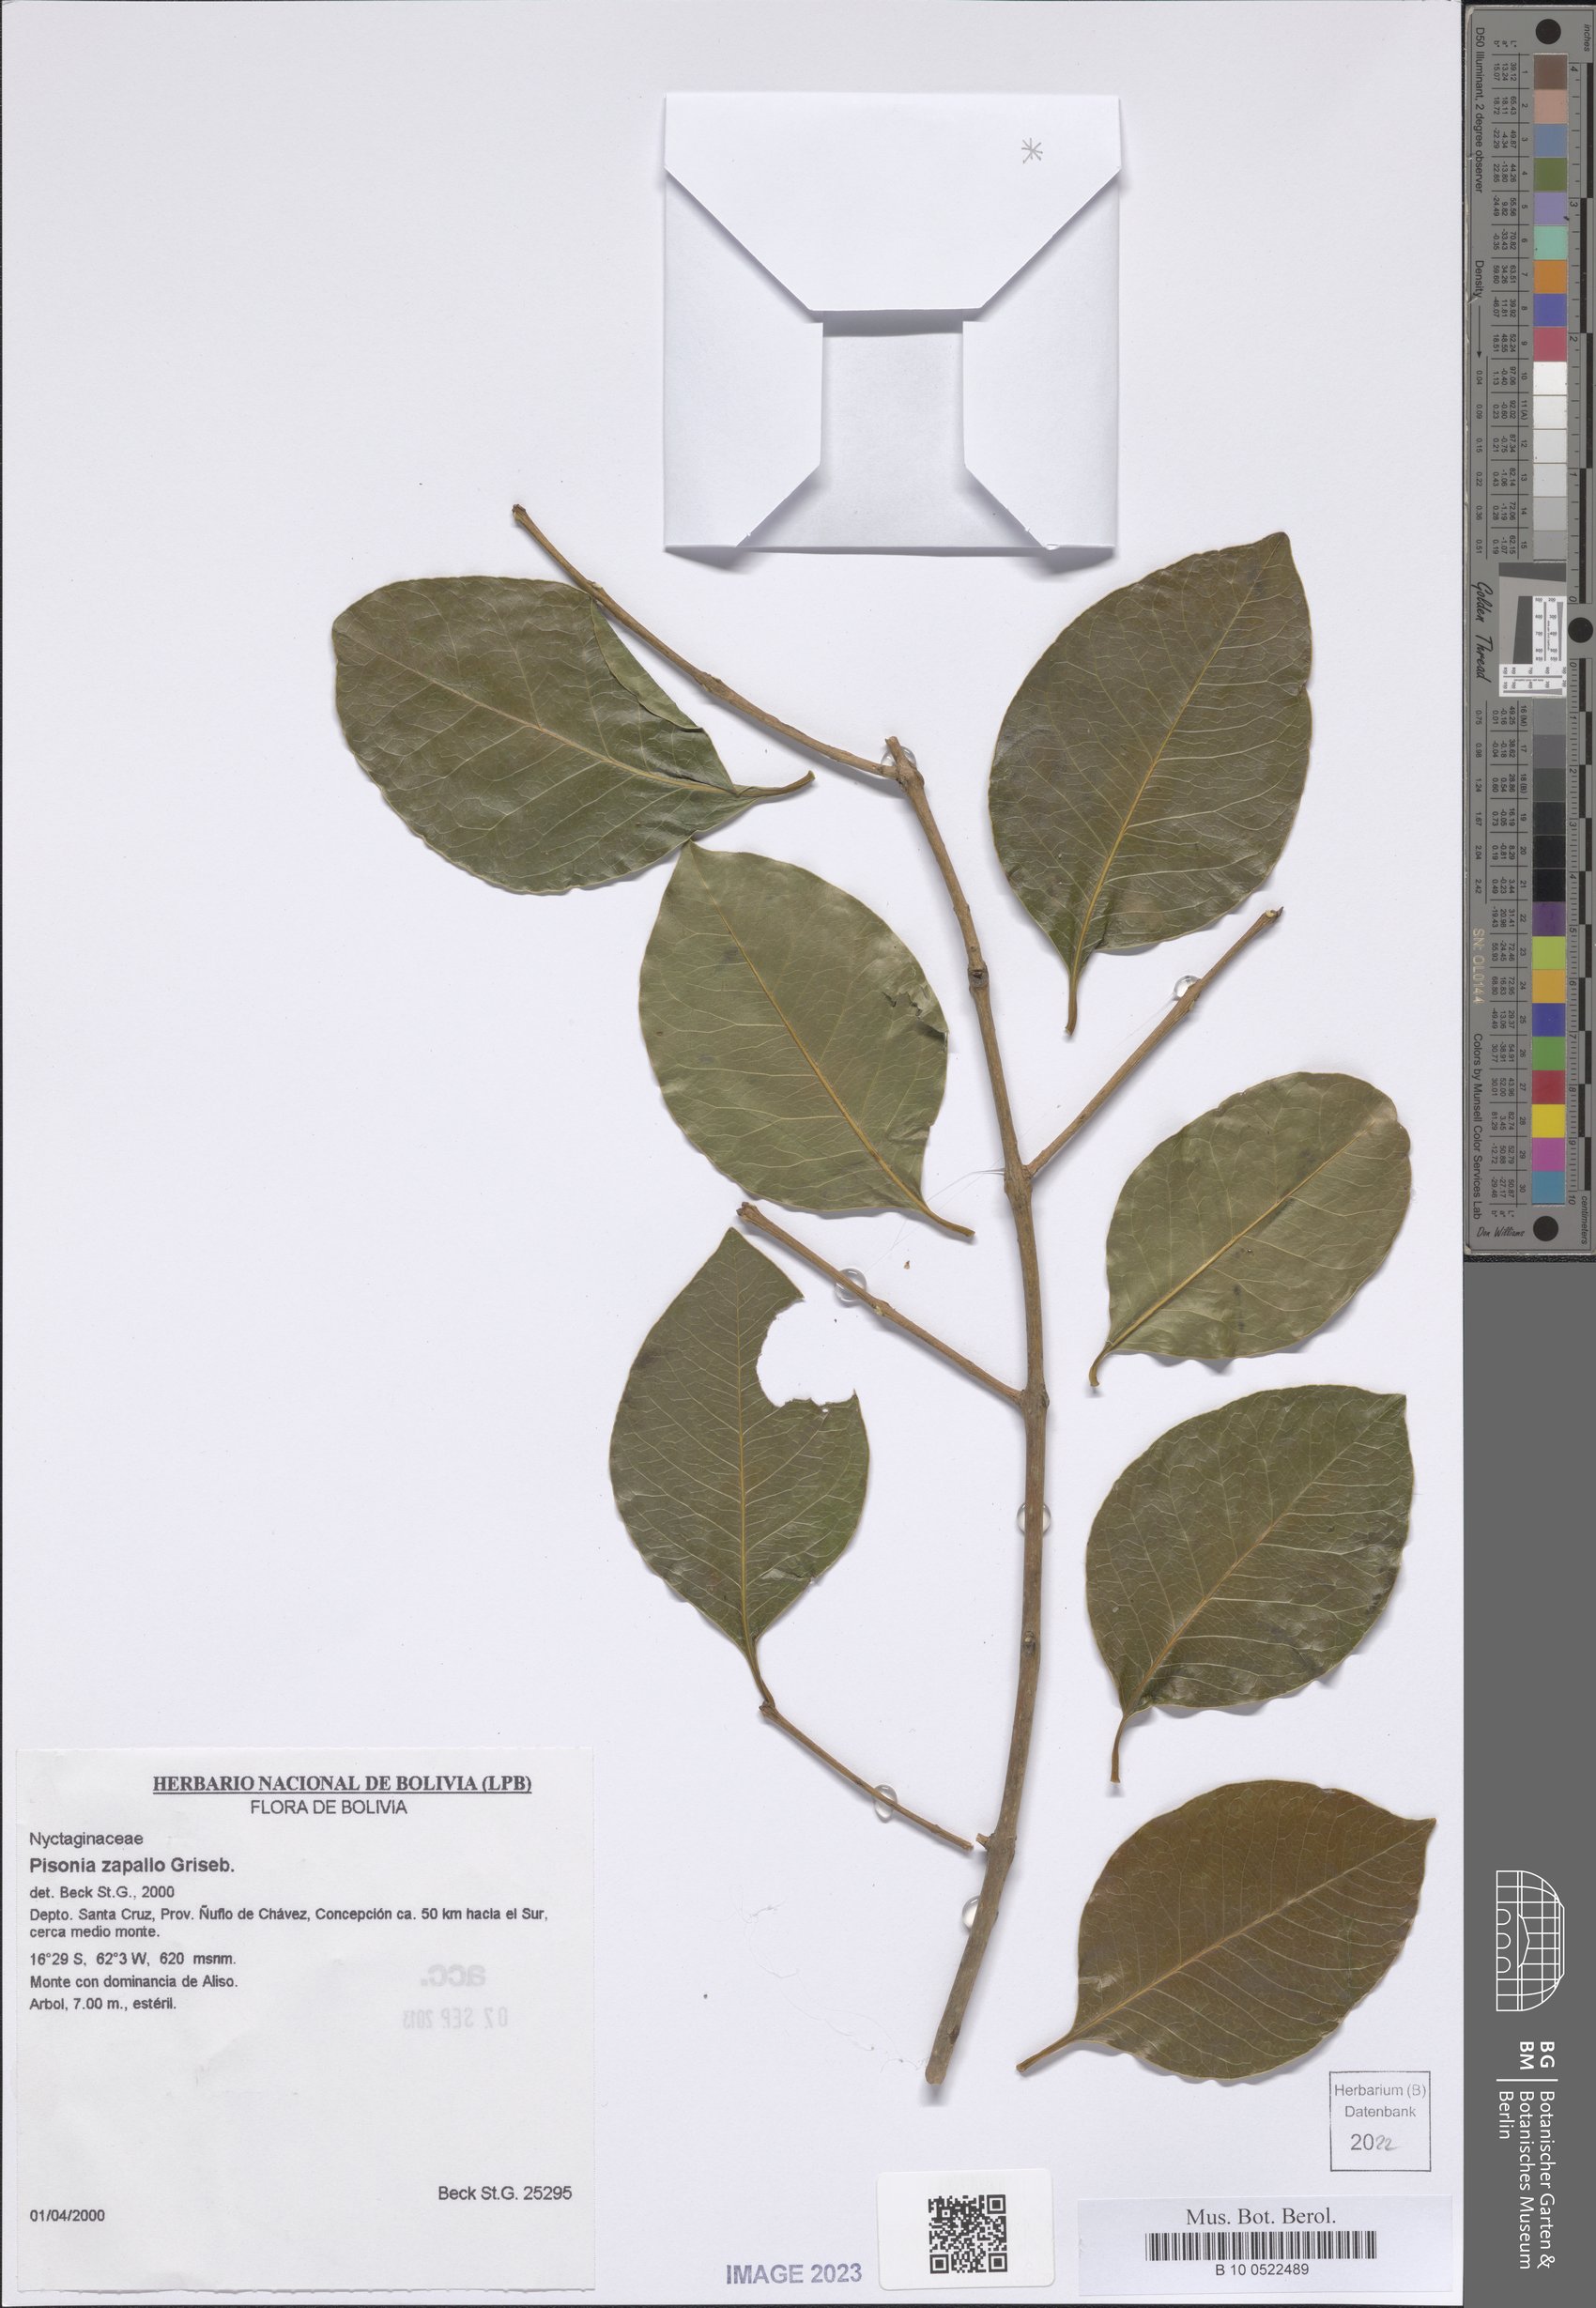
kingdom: Plantae
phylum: Tracheophyta
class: Magnoliopsida
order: Caryophyllales
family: Nyctaginaceae
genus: Pisonia
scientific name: Pisonia zapallo
